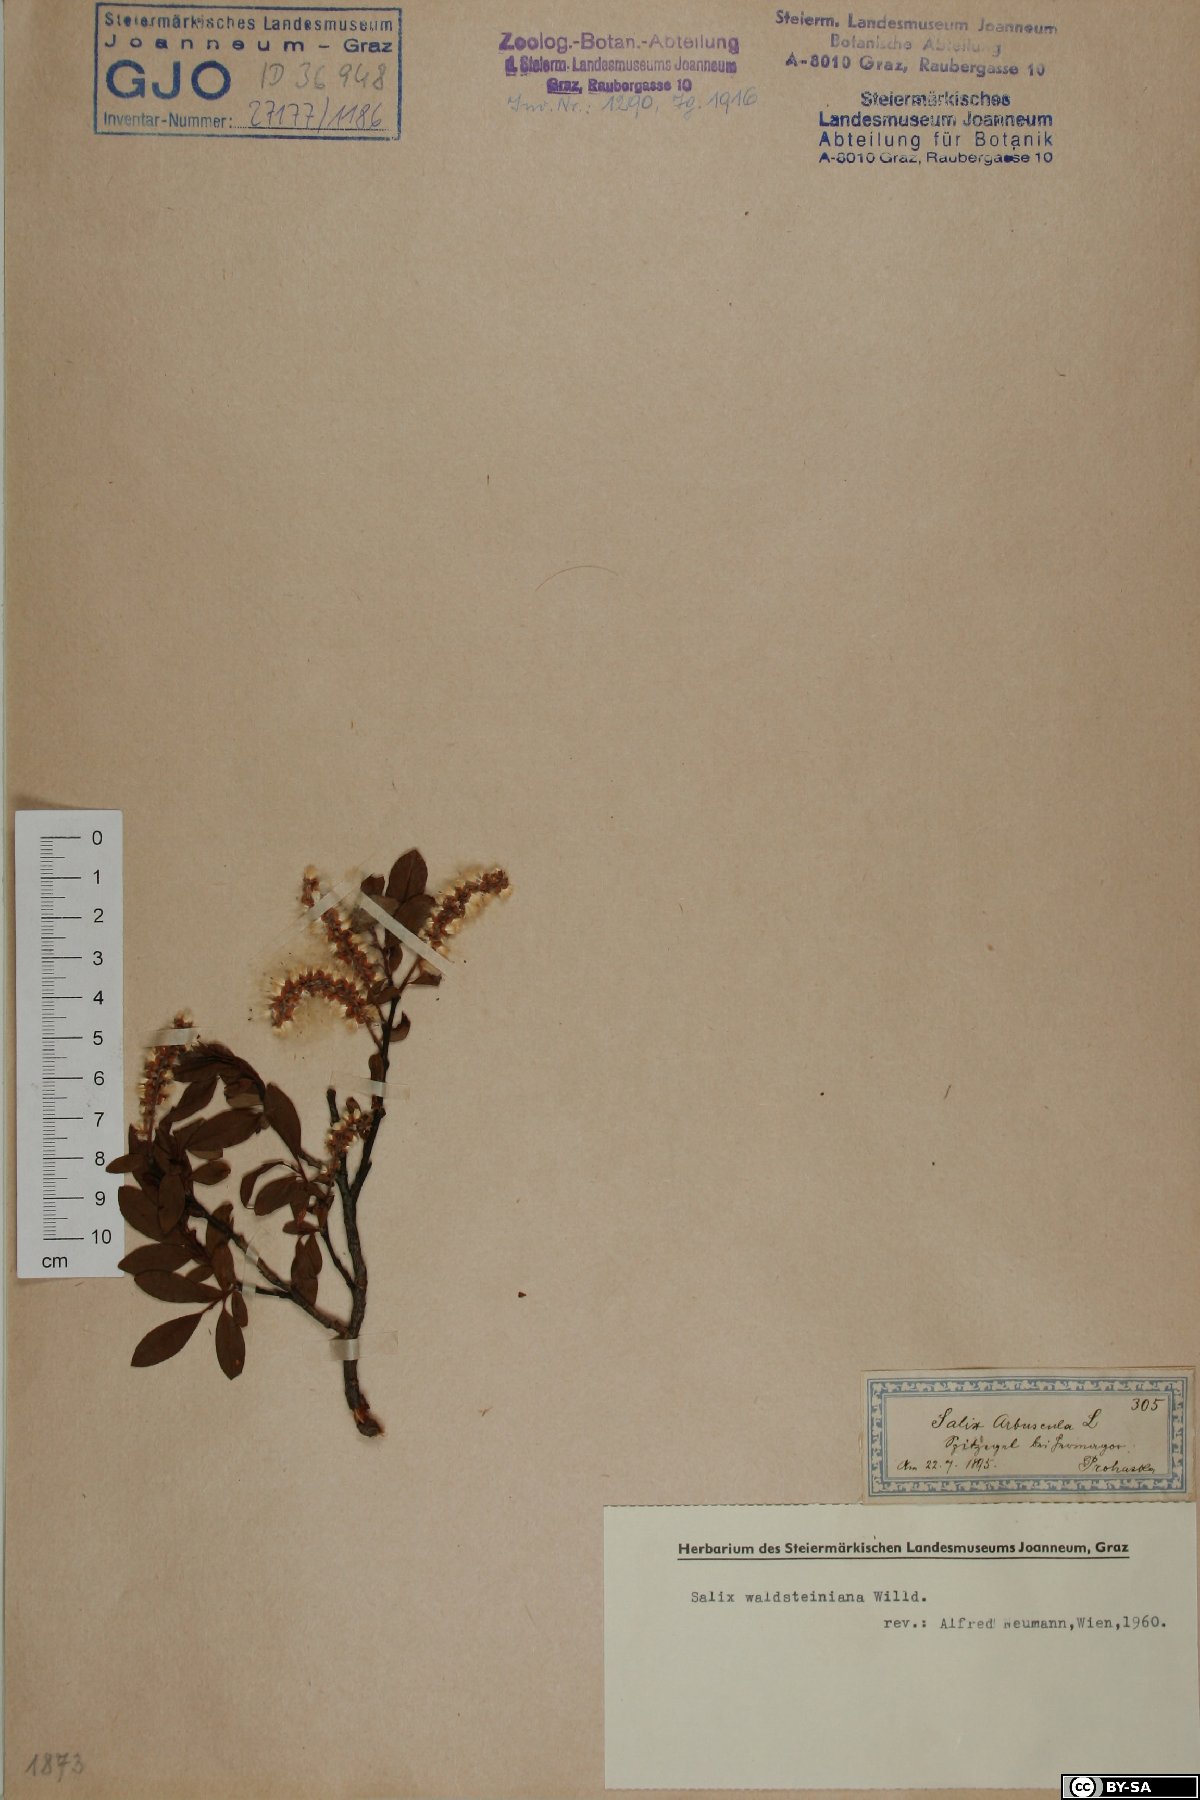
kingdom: Plantae
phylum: Tracheophyta
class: Magnoliopsida
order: Malpighiales
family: Salicaceae
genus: Salix
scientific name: Salix waldsteiniana
